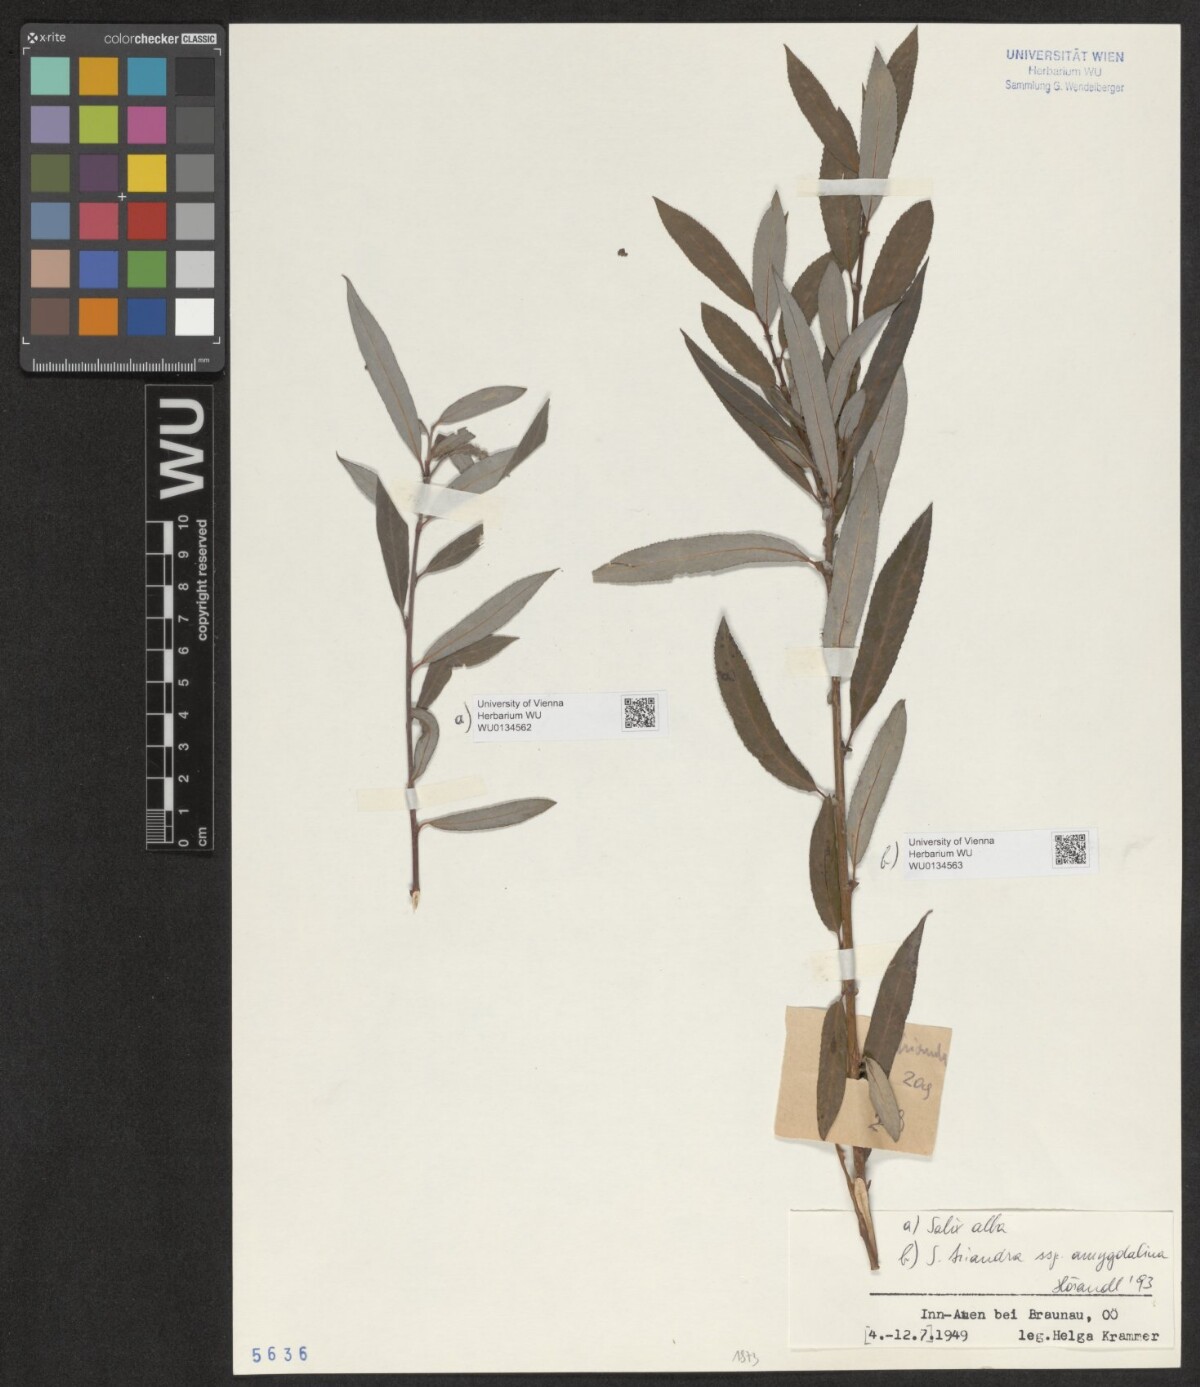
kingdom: Plantae
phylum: Tracheophyta
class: Magnoliopsida
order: Malpighiales
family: Salicaceae
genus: Salix
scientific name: Salix alba
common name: White willow
